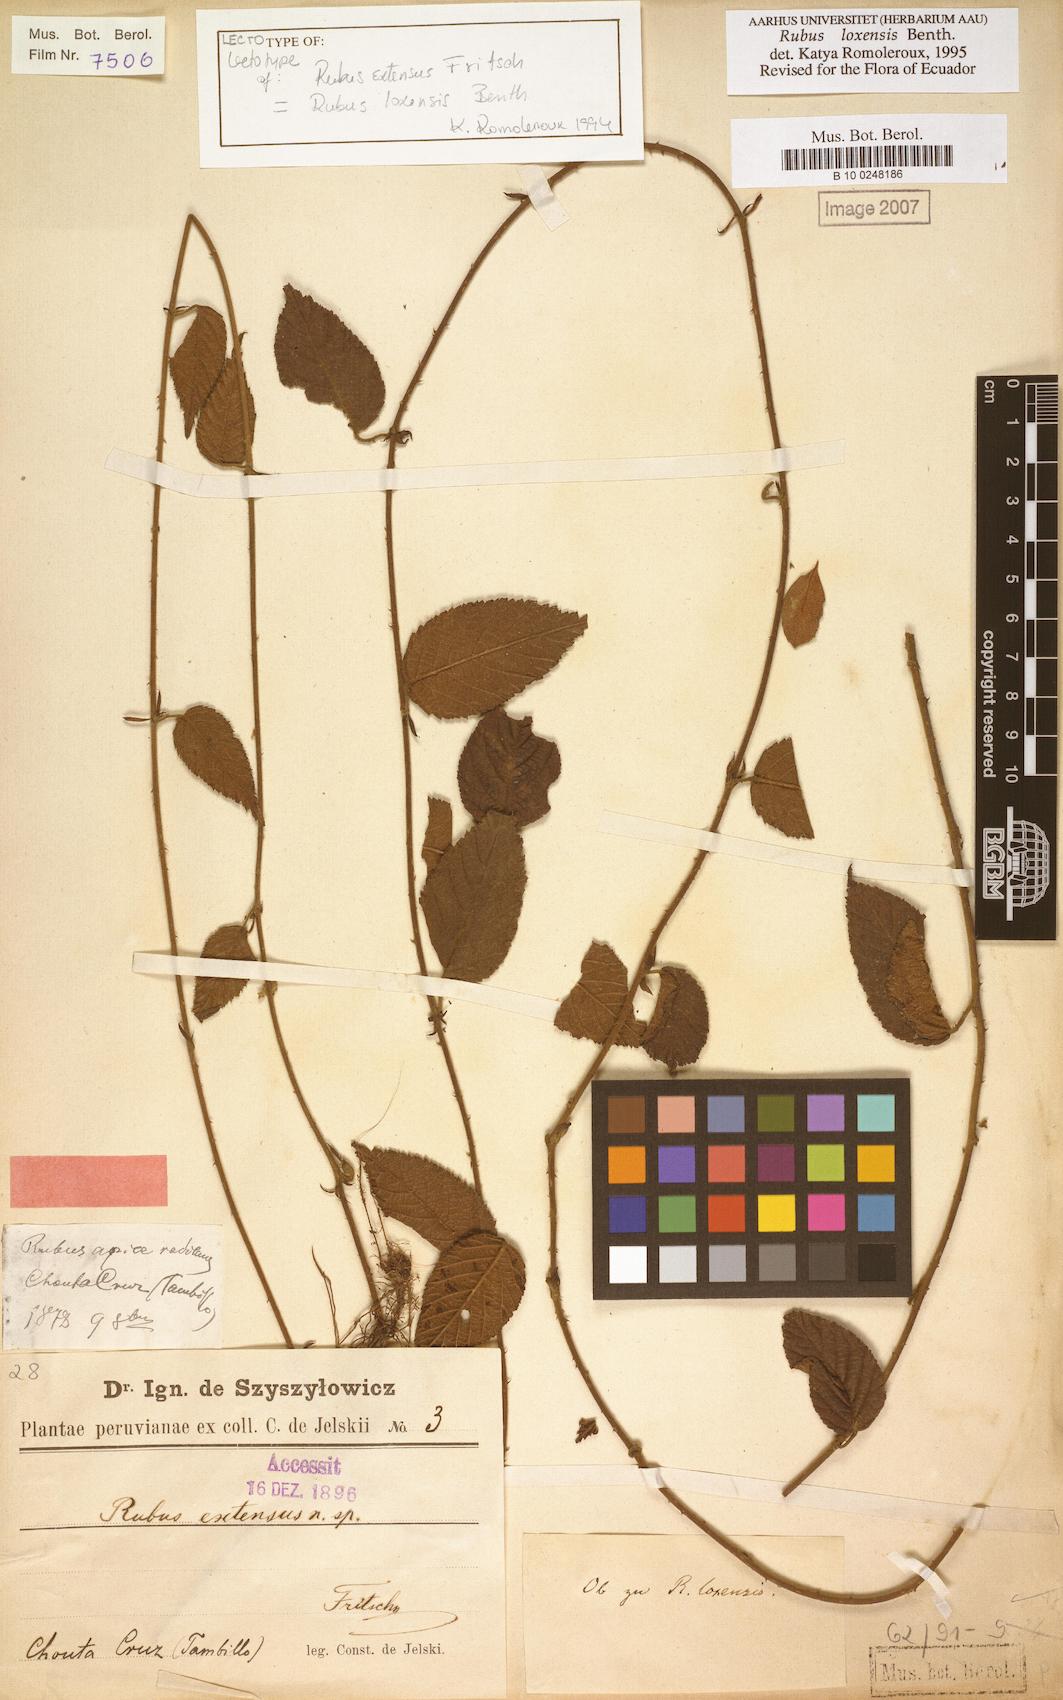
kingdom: Plantae
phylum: Tracheophyta
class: Magnoliopsida
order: Rosales
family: Rosaceae
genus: Rubus
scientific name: Rubus loxensis
